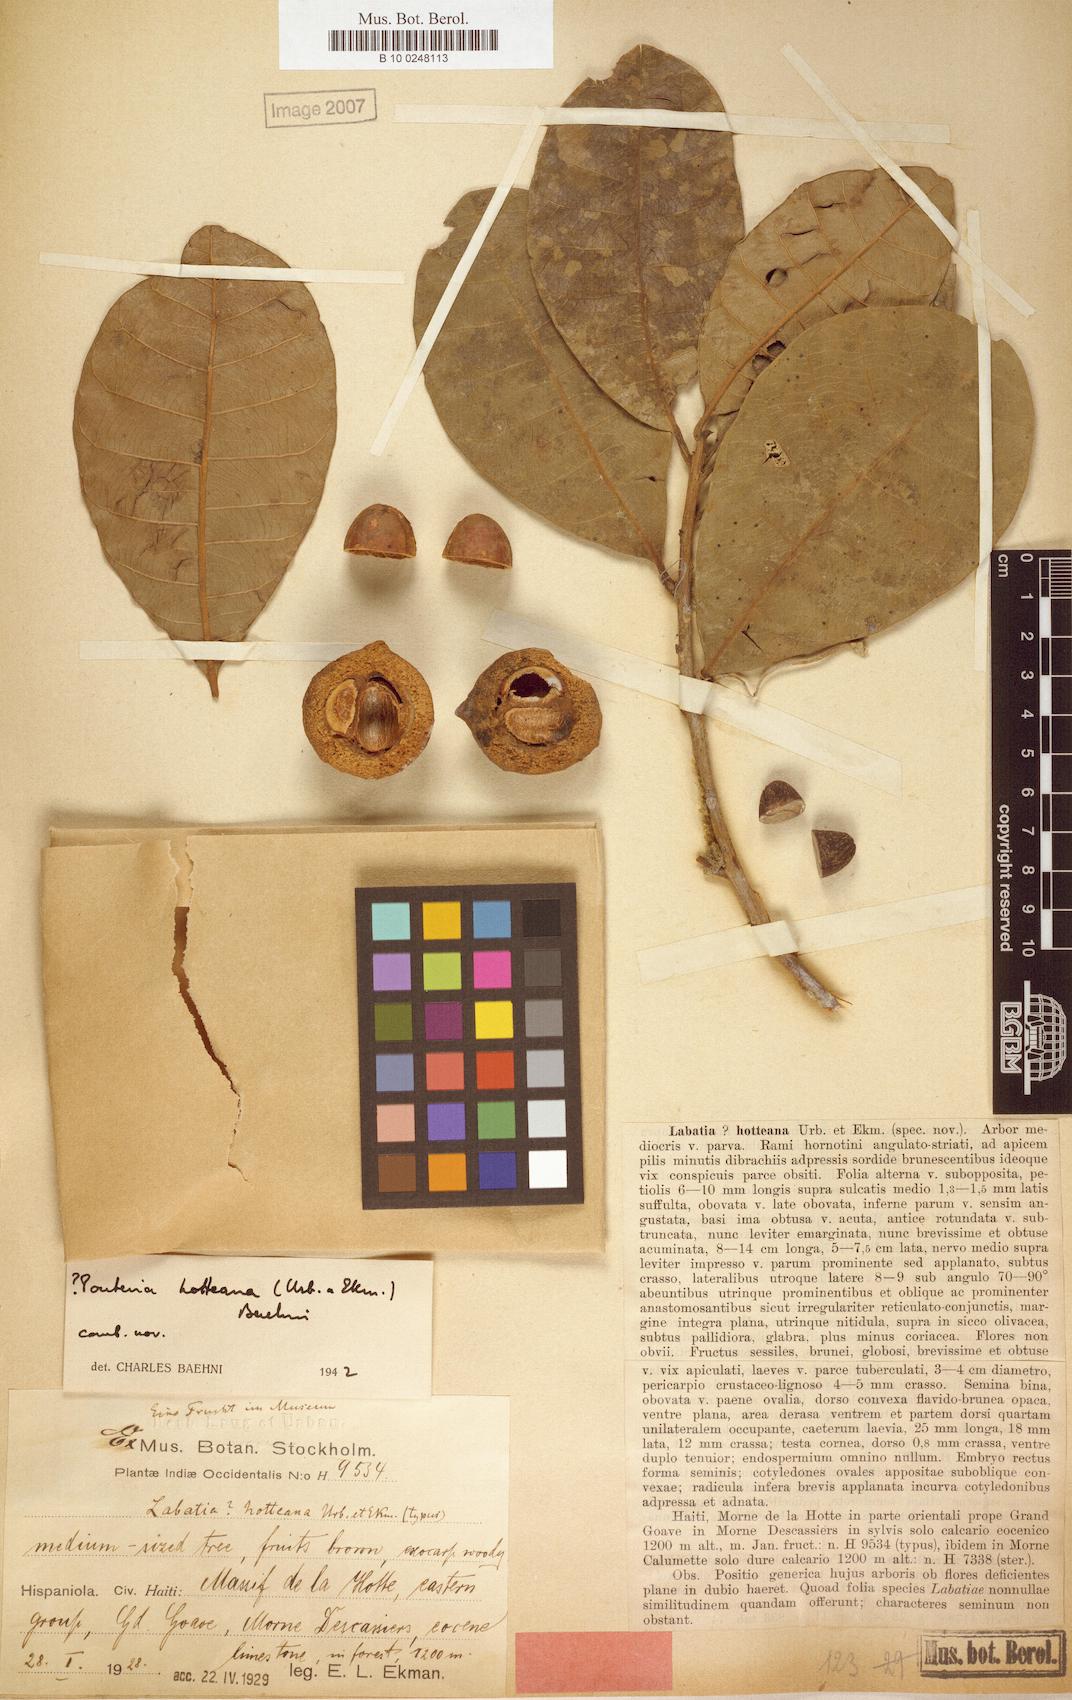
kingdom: Plantae
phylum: Tracheophyta
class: Magnoliopsida
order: Ericales
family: Sapotaceae
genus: Pouteria
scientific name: Pouteria hotteana
